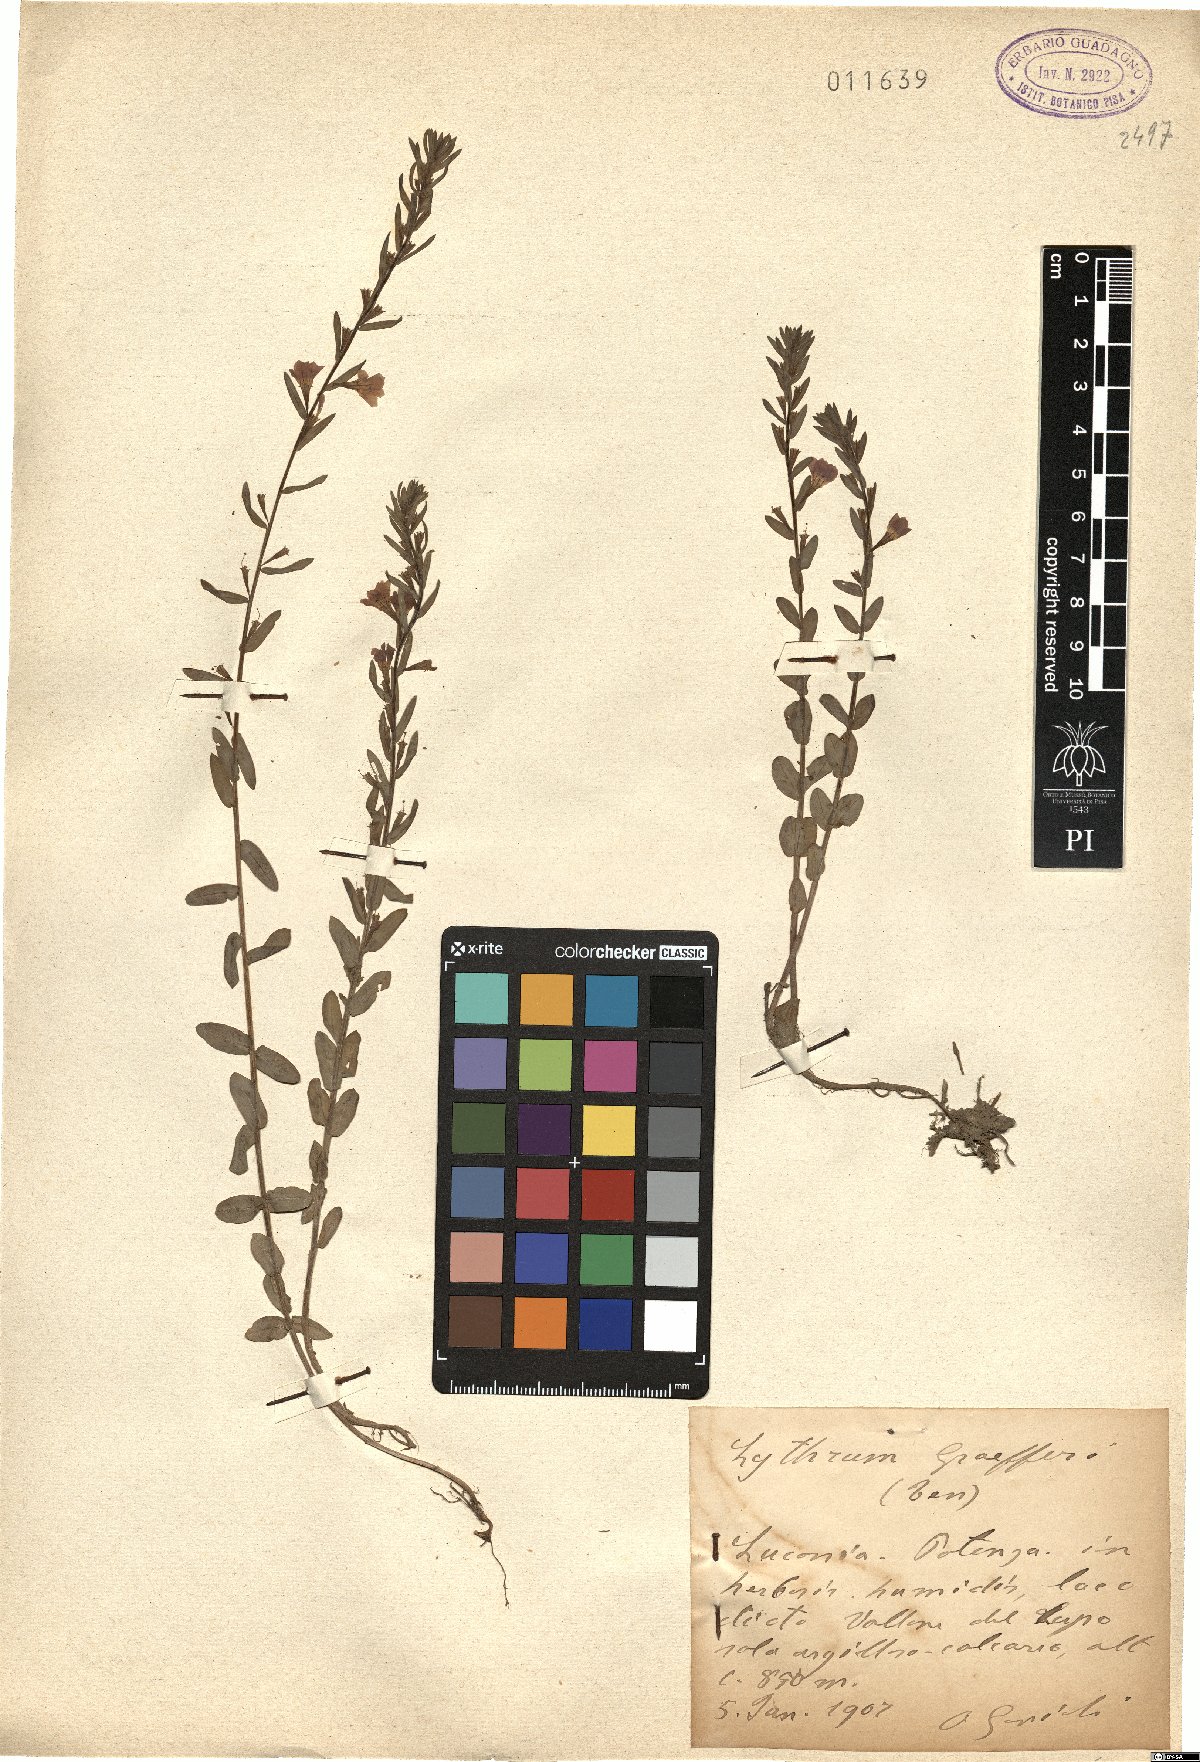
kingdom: Plantae
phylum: Tracheophyta
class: Magnoliopsida
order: Myrtales
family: Lythraceae
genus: Lythrum
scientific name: Lythrum junceum
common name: False grass-poly
